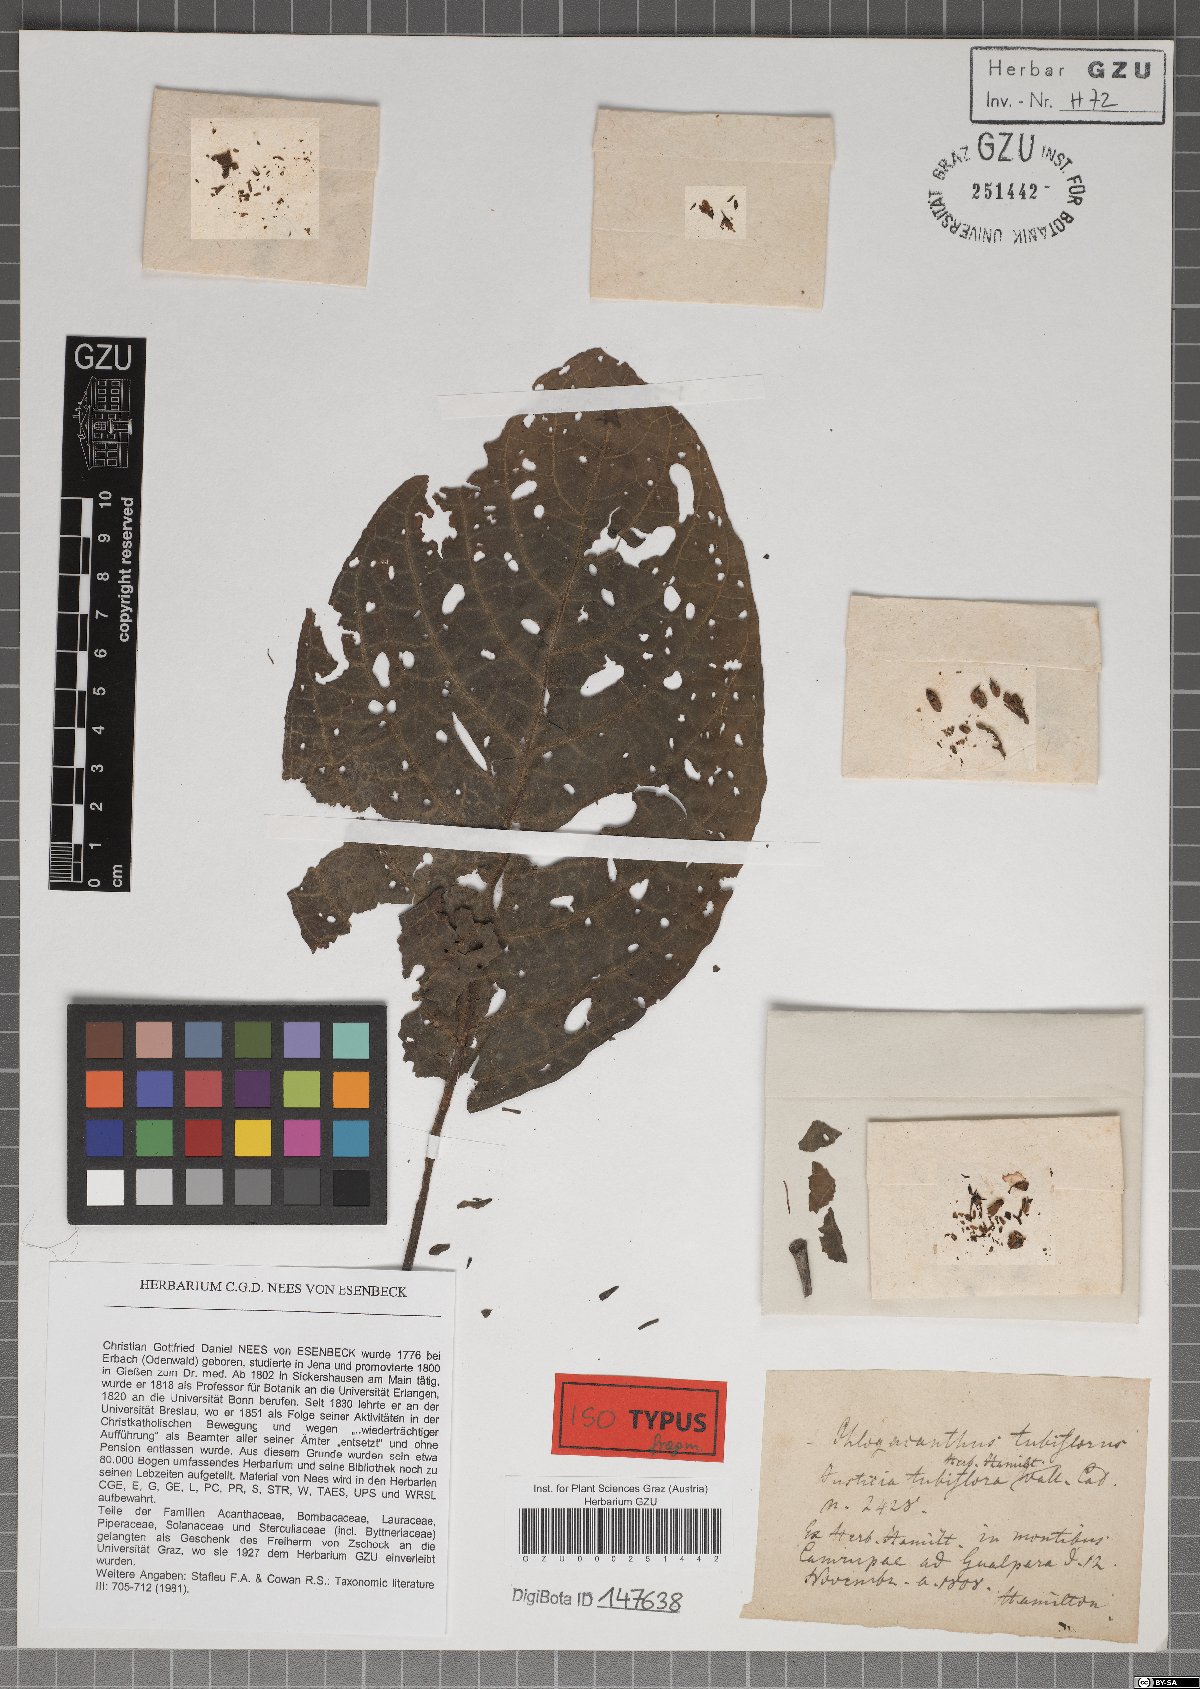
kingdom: Plantae
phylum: Tracheophyta
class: Magnoliopsida
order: Lamiales
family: Acanthaceae
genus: Phlogacanthus
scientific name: Phlogacanthus tubiflorus
